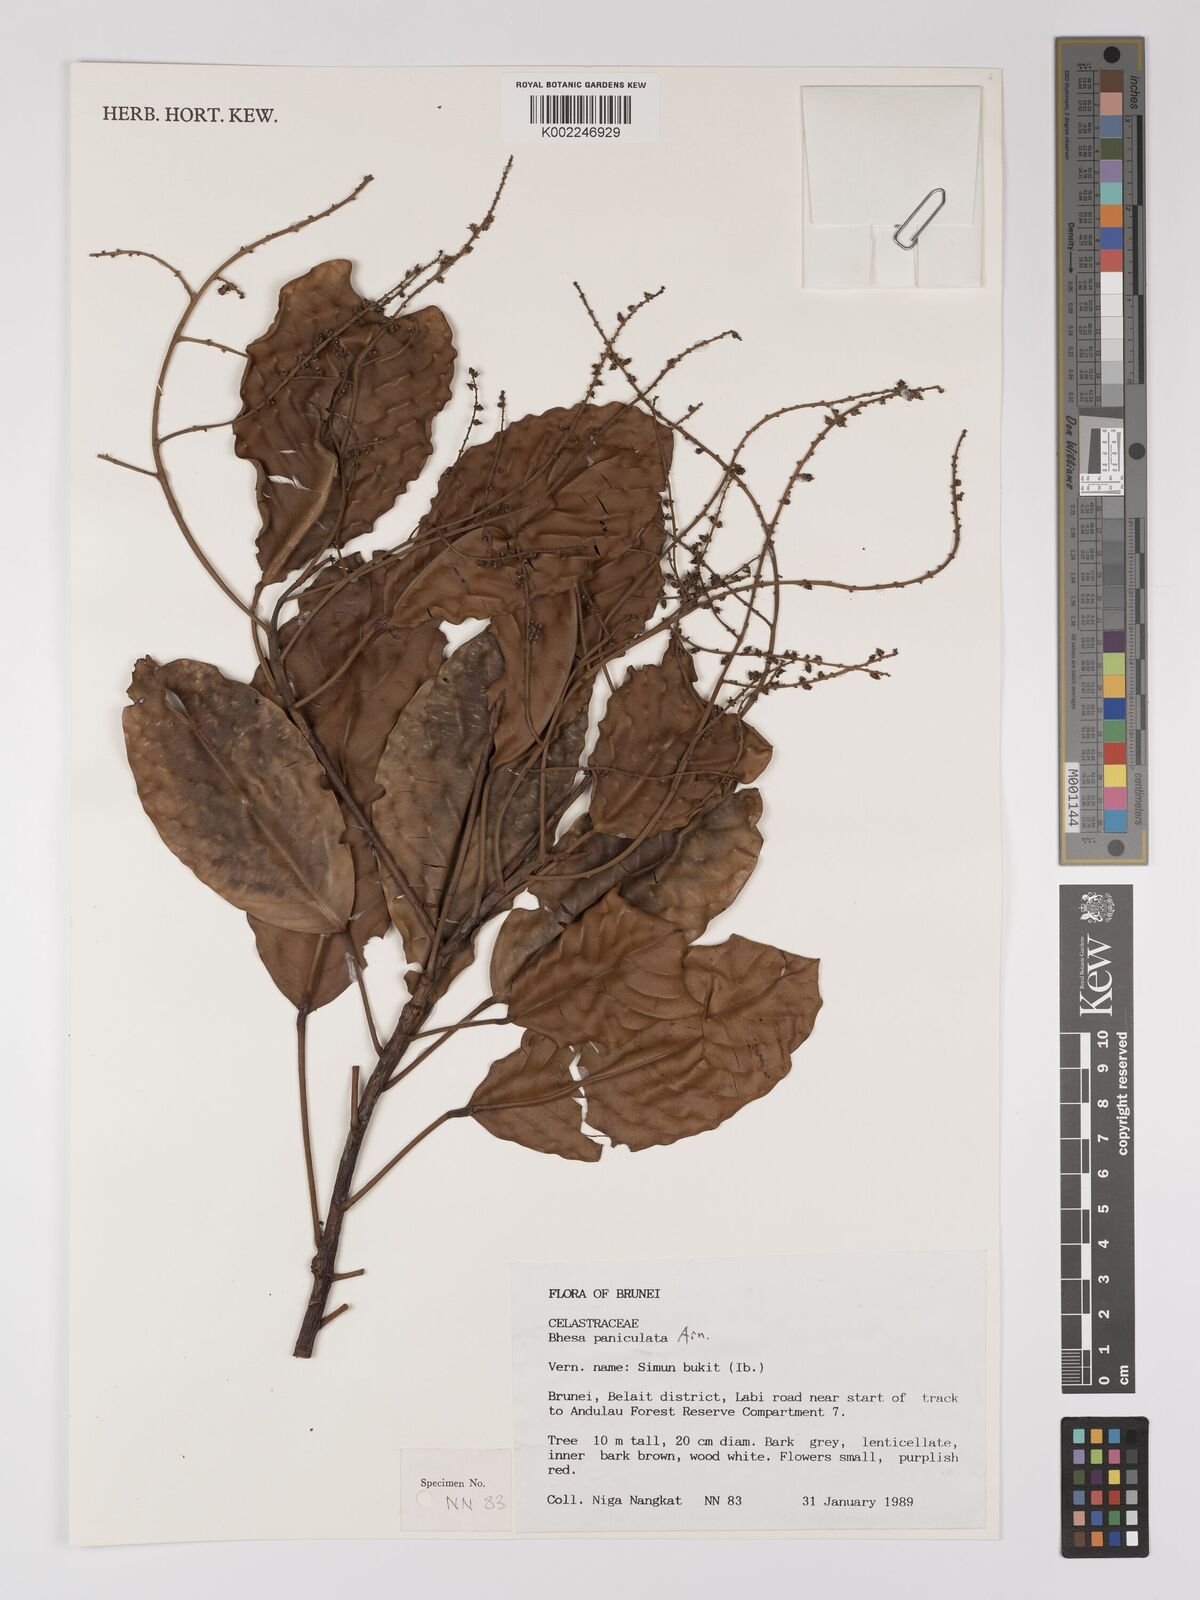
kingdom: Plantae
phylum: Tracheophyta
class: Magnoliopsida
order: Malpighiales
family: Centroplacaceae
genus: Bhesa
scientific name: Bhesa paniculata
